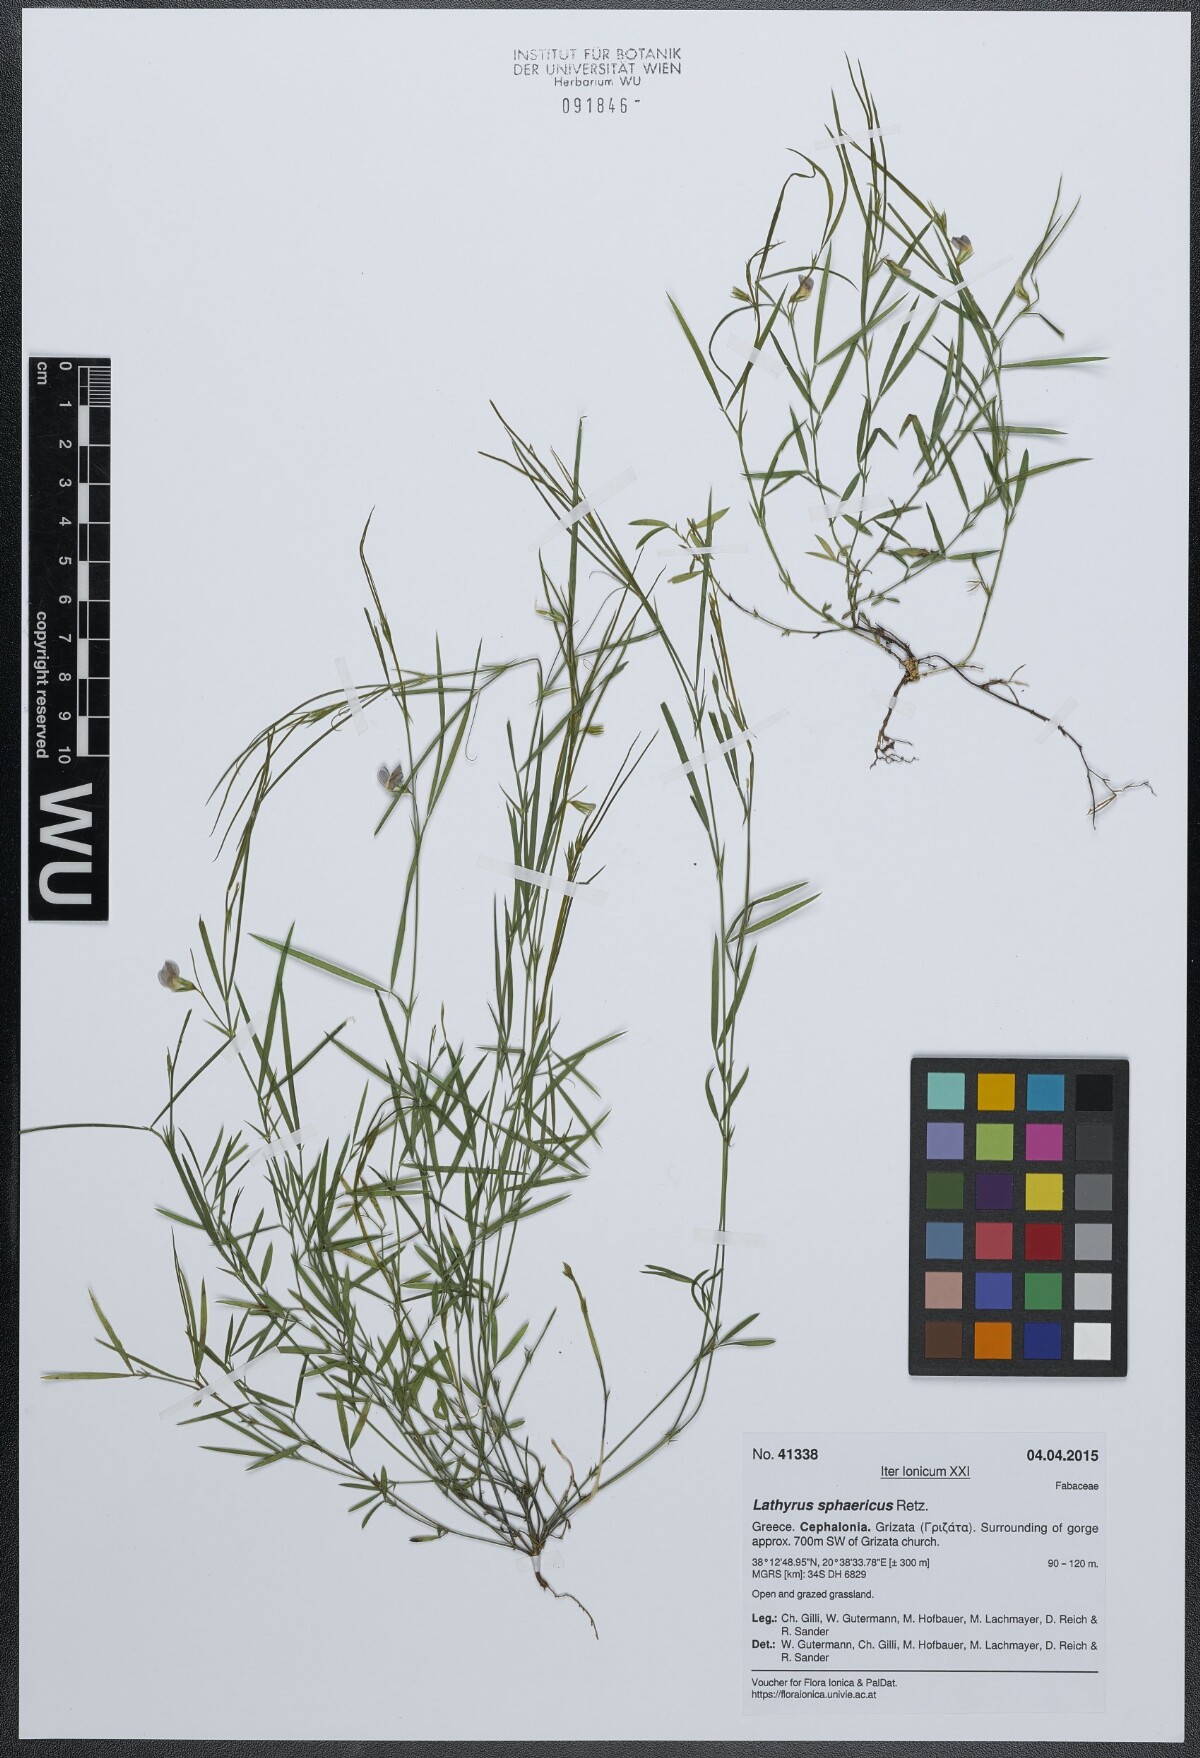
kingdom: Plantae
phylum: Tracheophyta
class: Magnoliopsida
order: Fabales
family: Fabaceae
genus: Lathyrus
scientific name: Lathyrus sphaericus
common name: Grass pea
